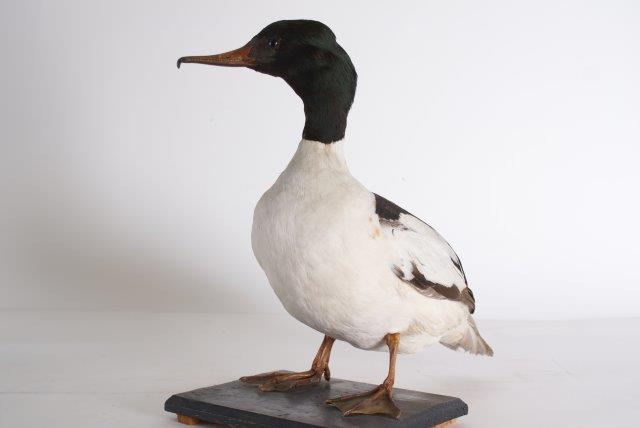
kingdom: Animalia
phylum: Chordata
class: Aves
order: Anseriformes
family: Anatidae
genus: Mergus
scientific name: Mergus merganser
